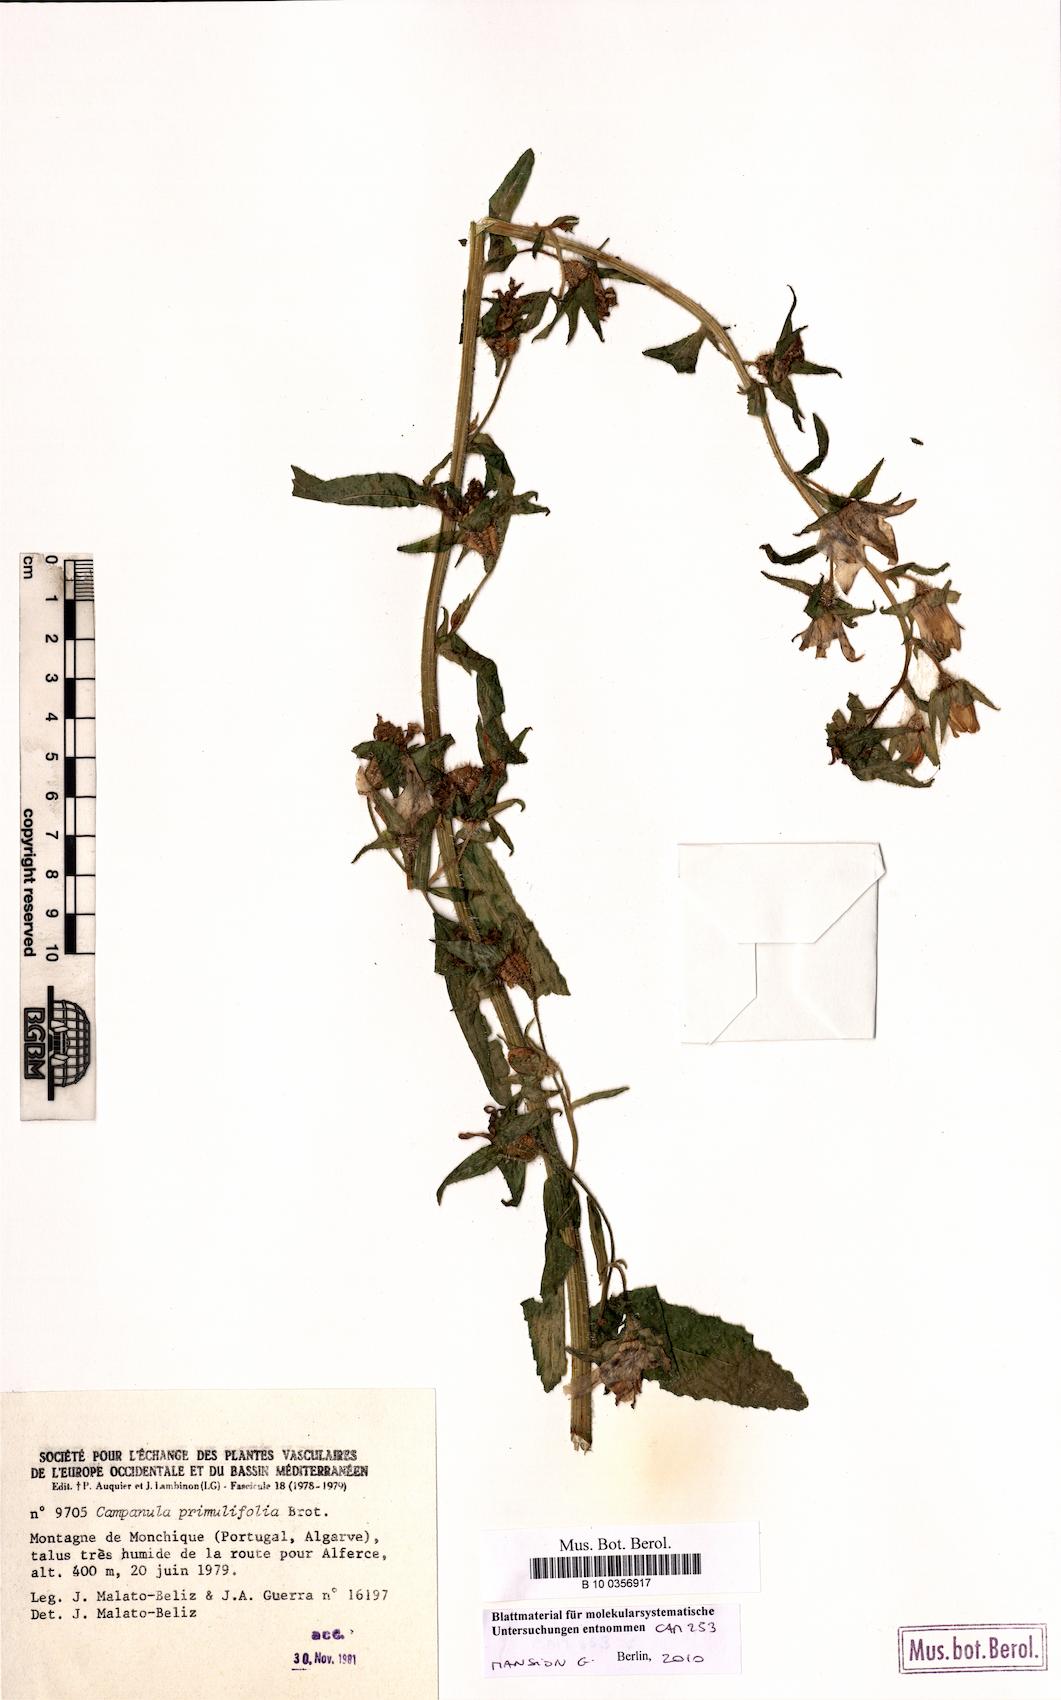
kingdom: Plantae
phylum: Tracheophyta
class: Magnoliopsida
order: Asterales
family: Campanulaceae
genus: Campanula
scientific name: Campanula alata
